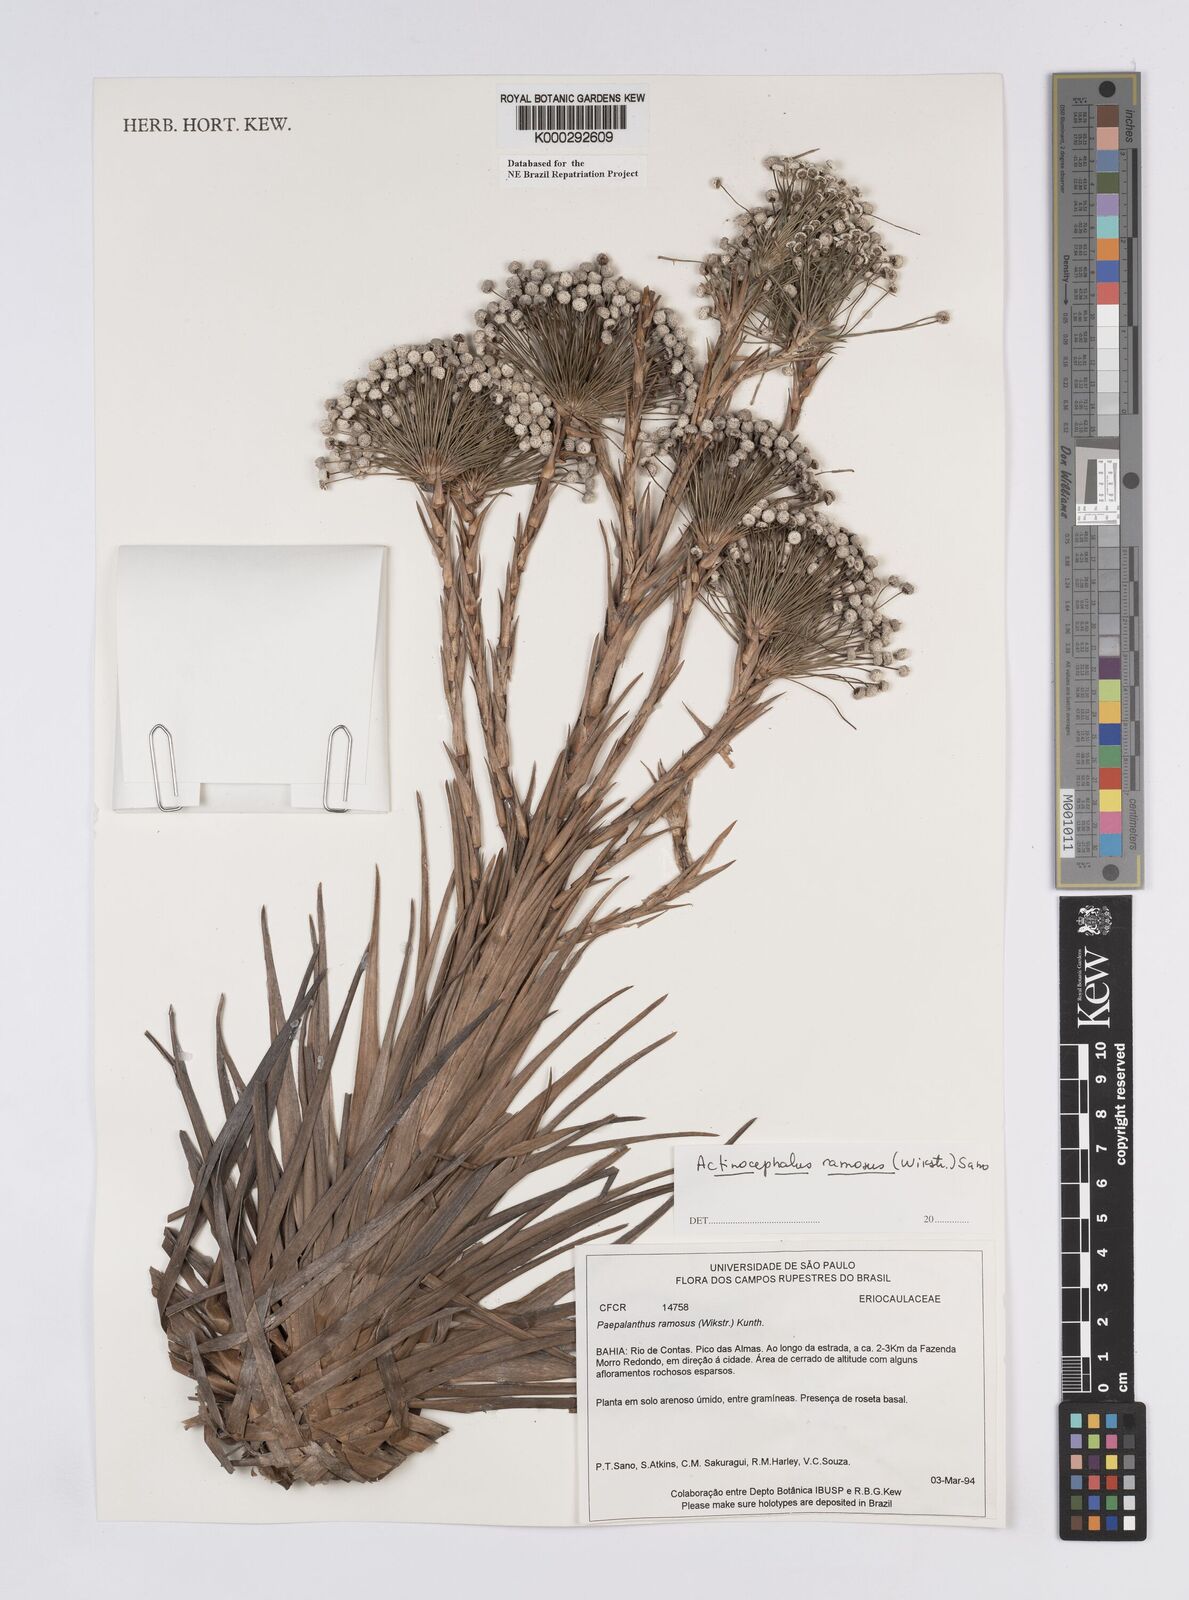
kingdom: Plantae
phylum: Tracheophyta
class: Liliopsida
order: Poales
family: Eriocaulaceae
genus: Paepalanthus
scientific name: Paepalanthus ramosus
